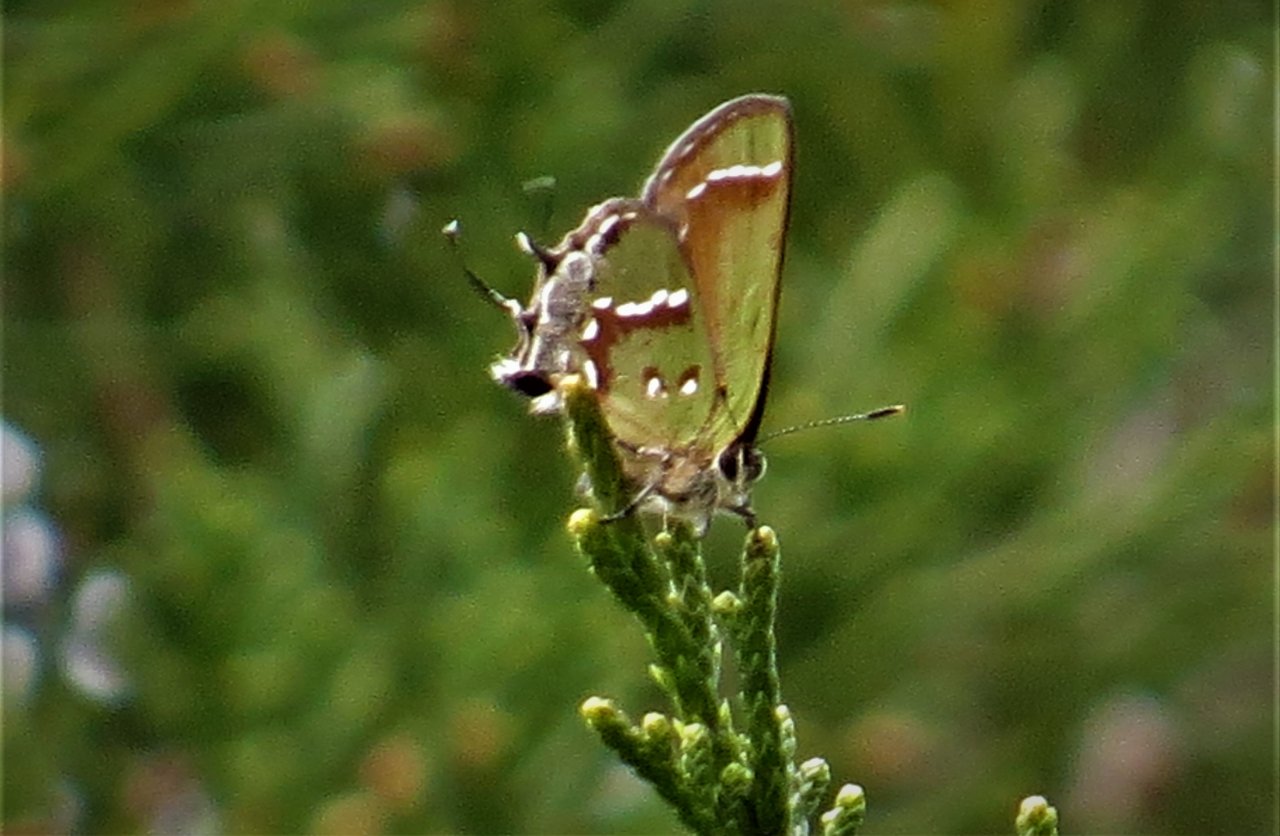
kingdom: Animalia
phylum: Arthropoda
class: Insecta
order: Lepidoptera
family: Lycaenidae
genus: Mitoura
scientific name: Mitoura gryneus
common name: Juniper Hairstreak
